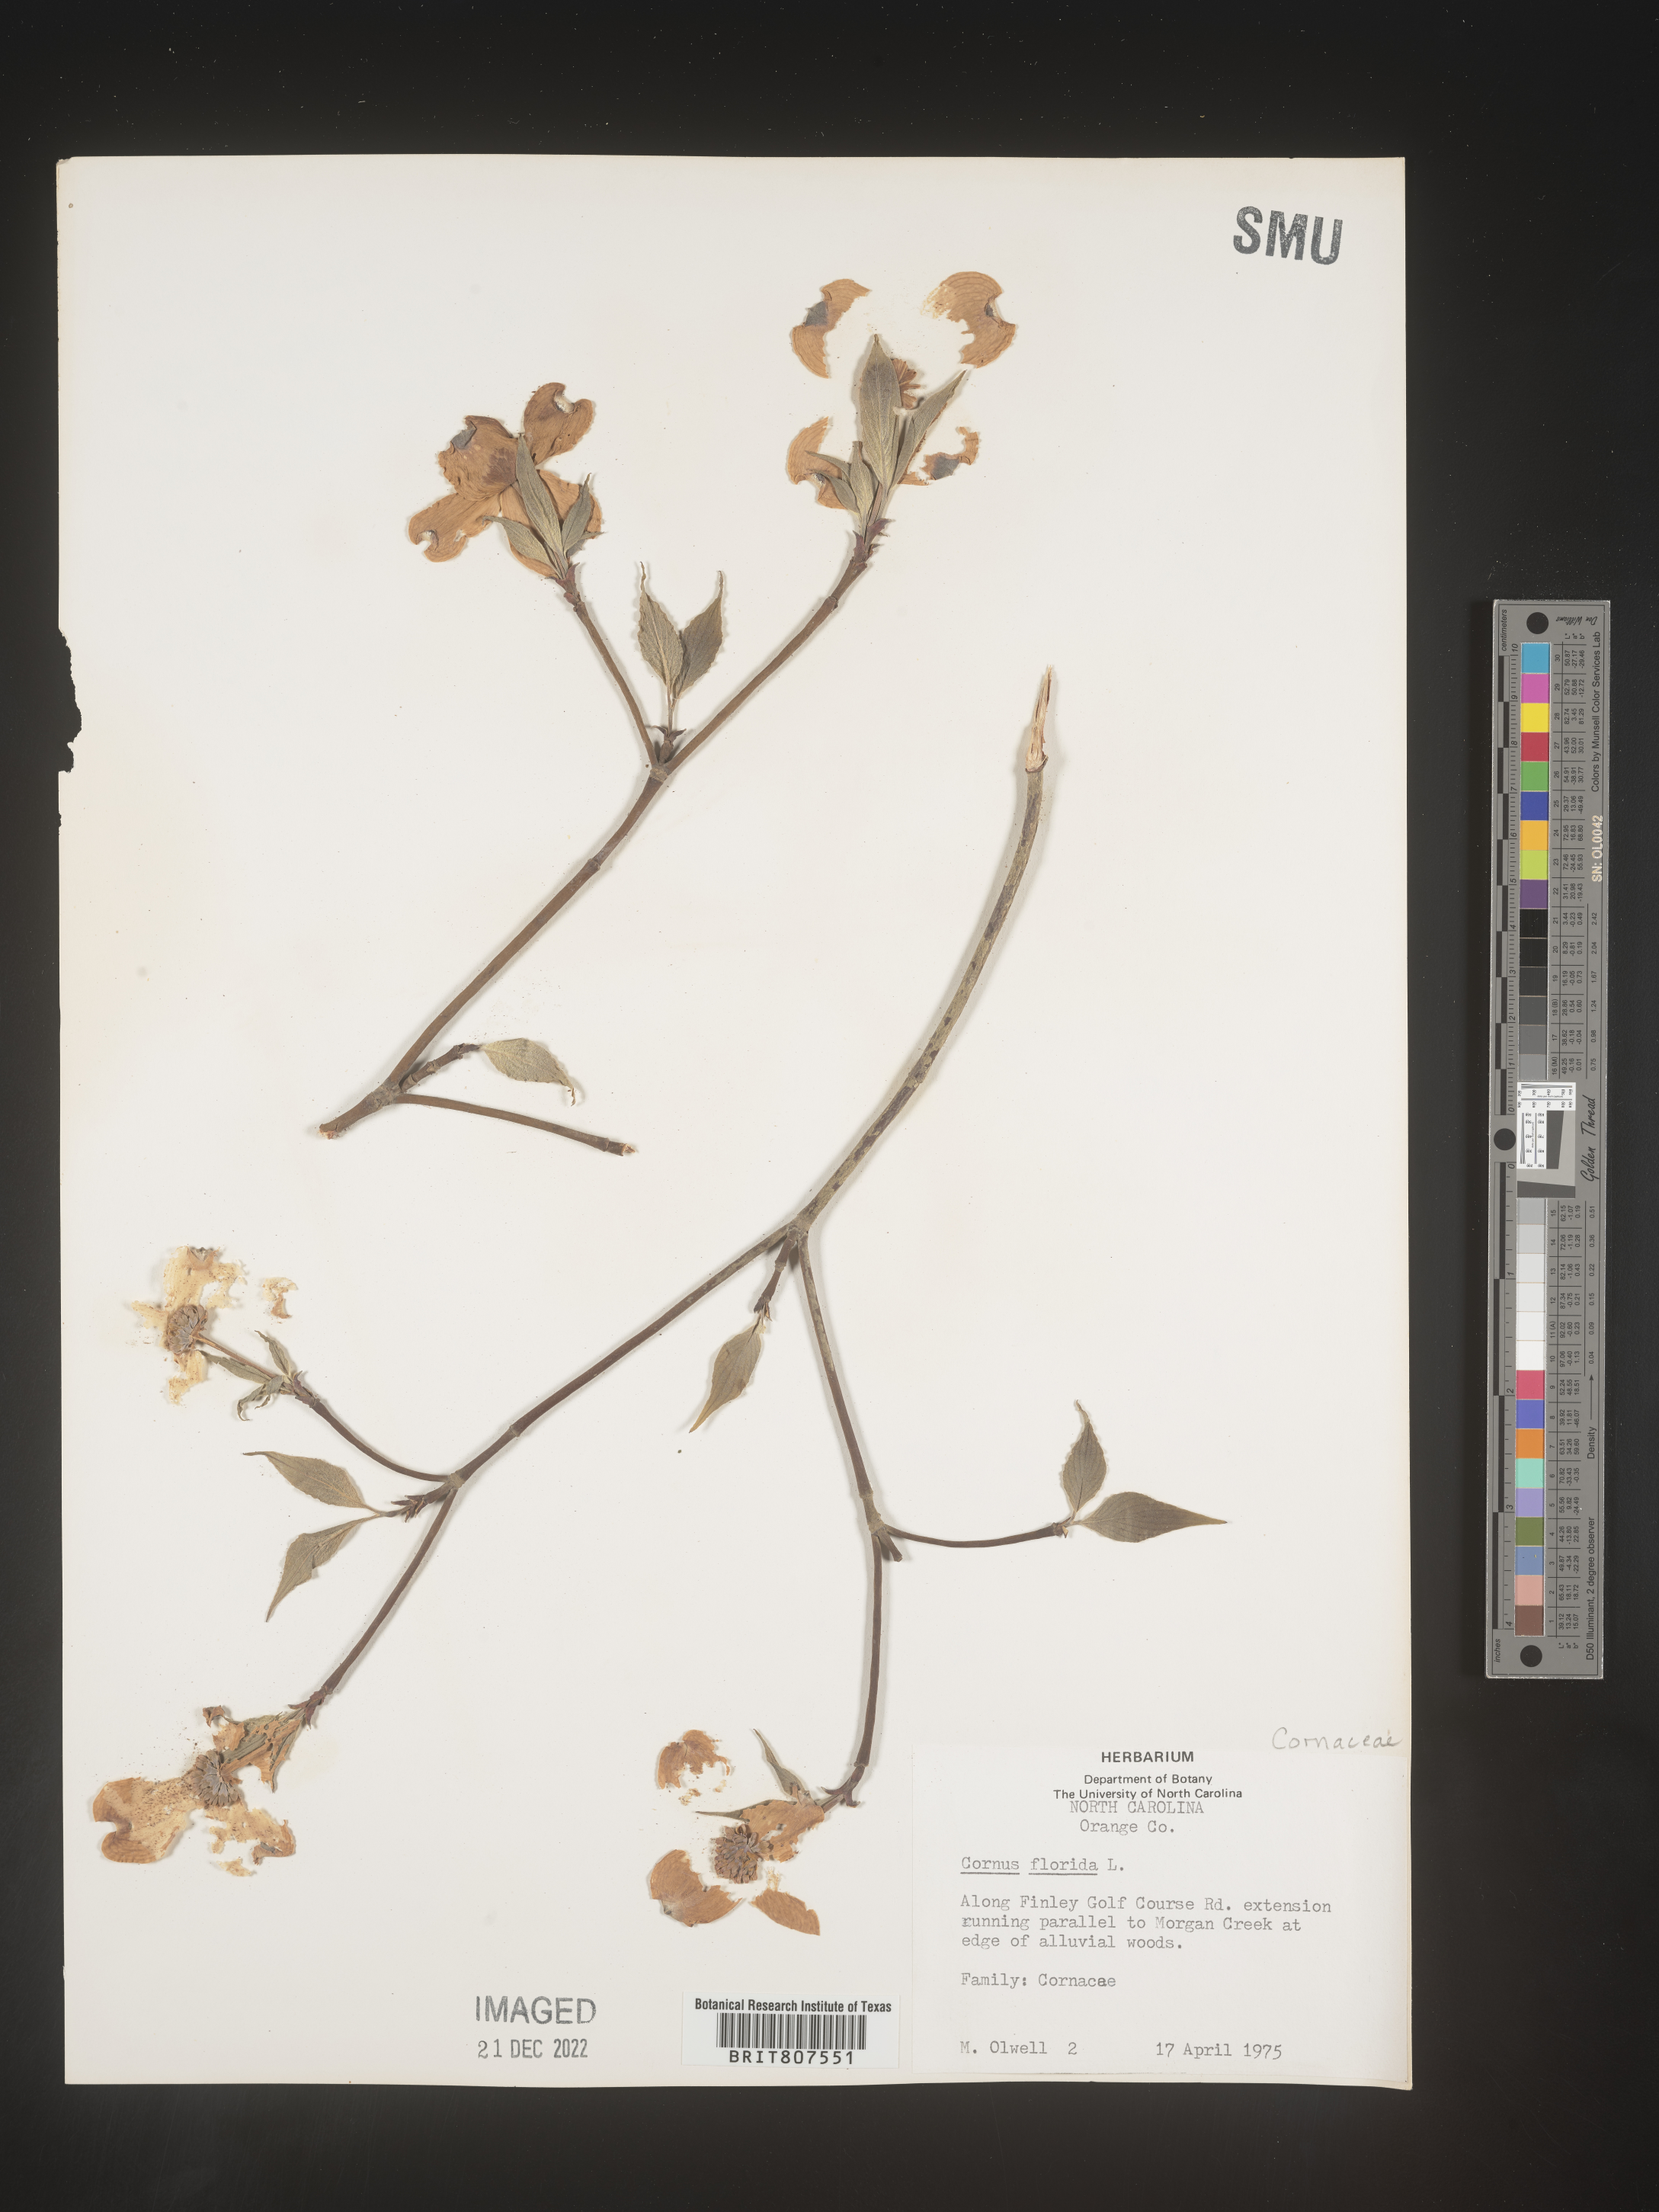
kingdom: Plantae
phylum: Tracheophyta
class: Magnoliopsida
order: Cornales
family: Cornaceae
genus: Cornus
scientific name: Cornus florida
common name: Flowering dogwood
